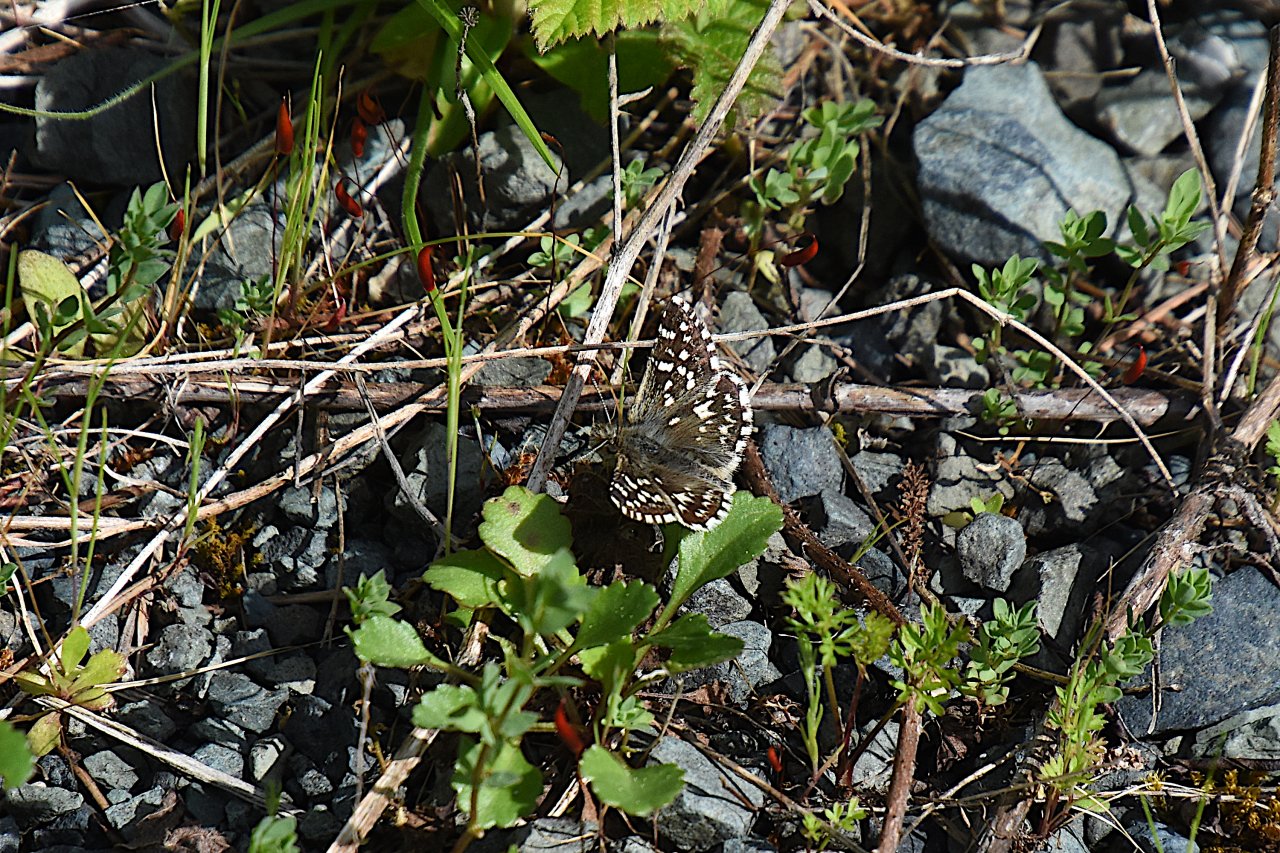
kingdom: Animalia
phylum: Arthropoda
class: Insecta
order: Lepidoptera
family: Hesperiidae
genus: Pyrgus
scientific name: Pyrgus ruralis
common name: Two-banded Checkered-Skipper
